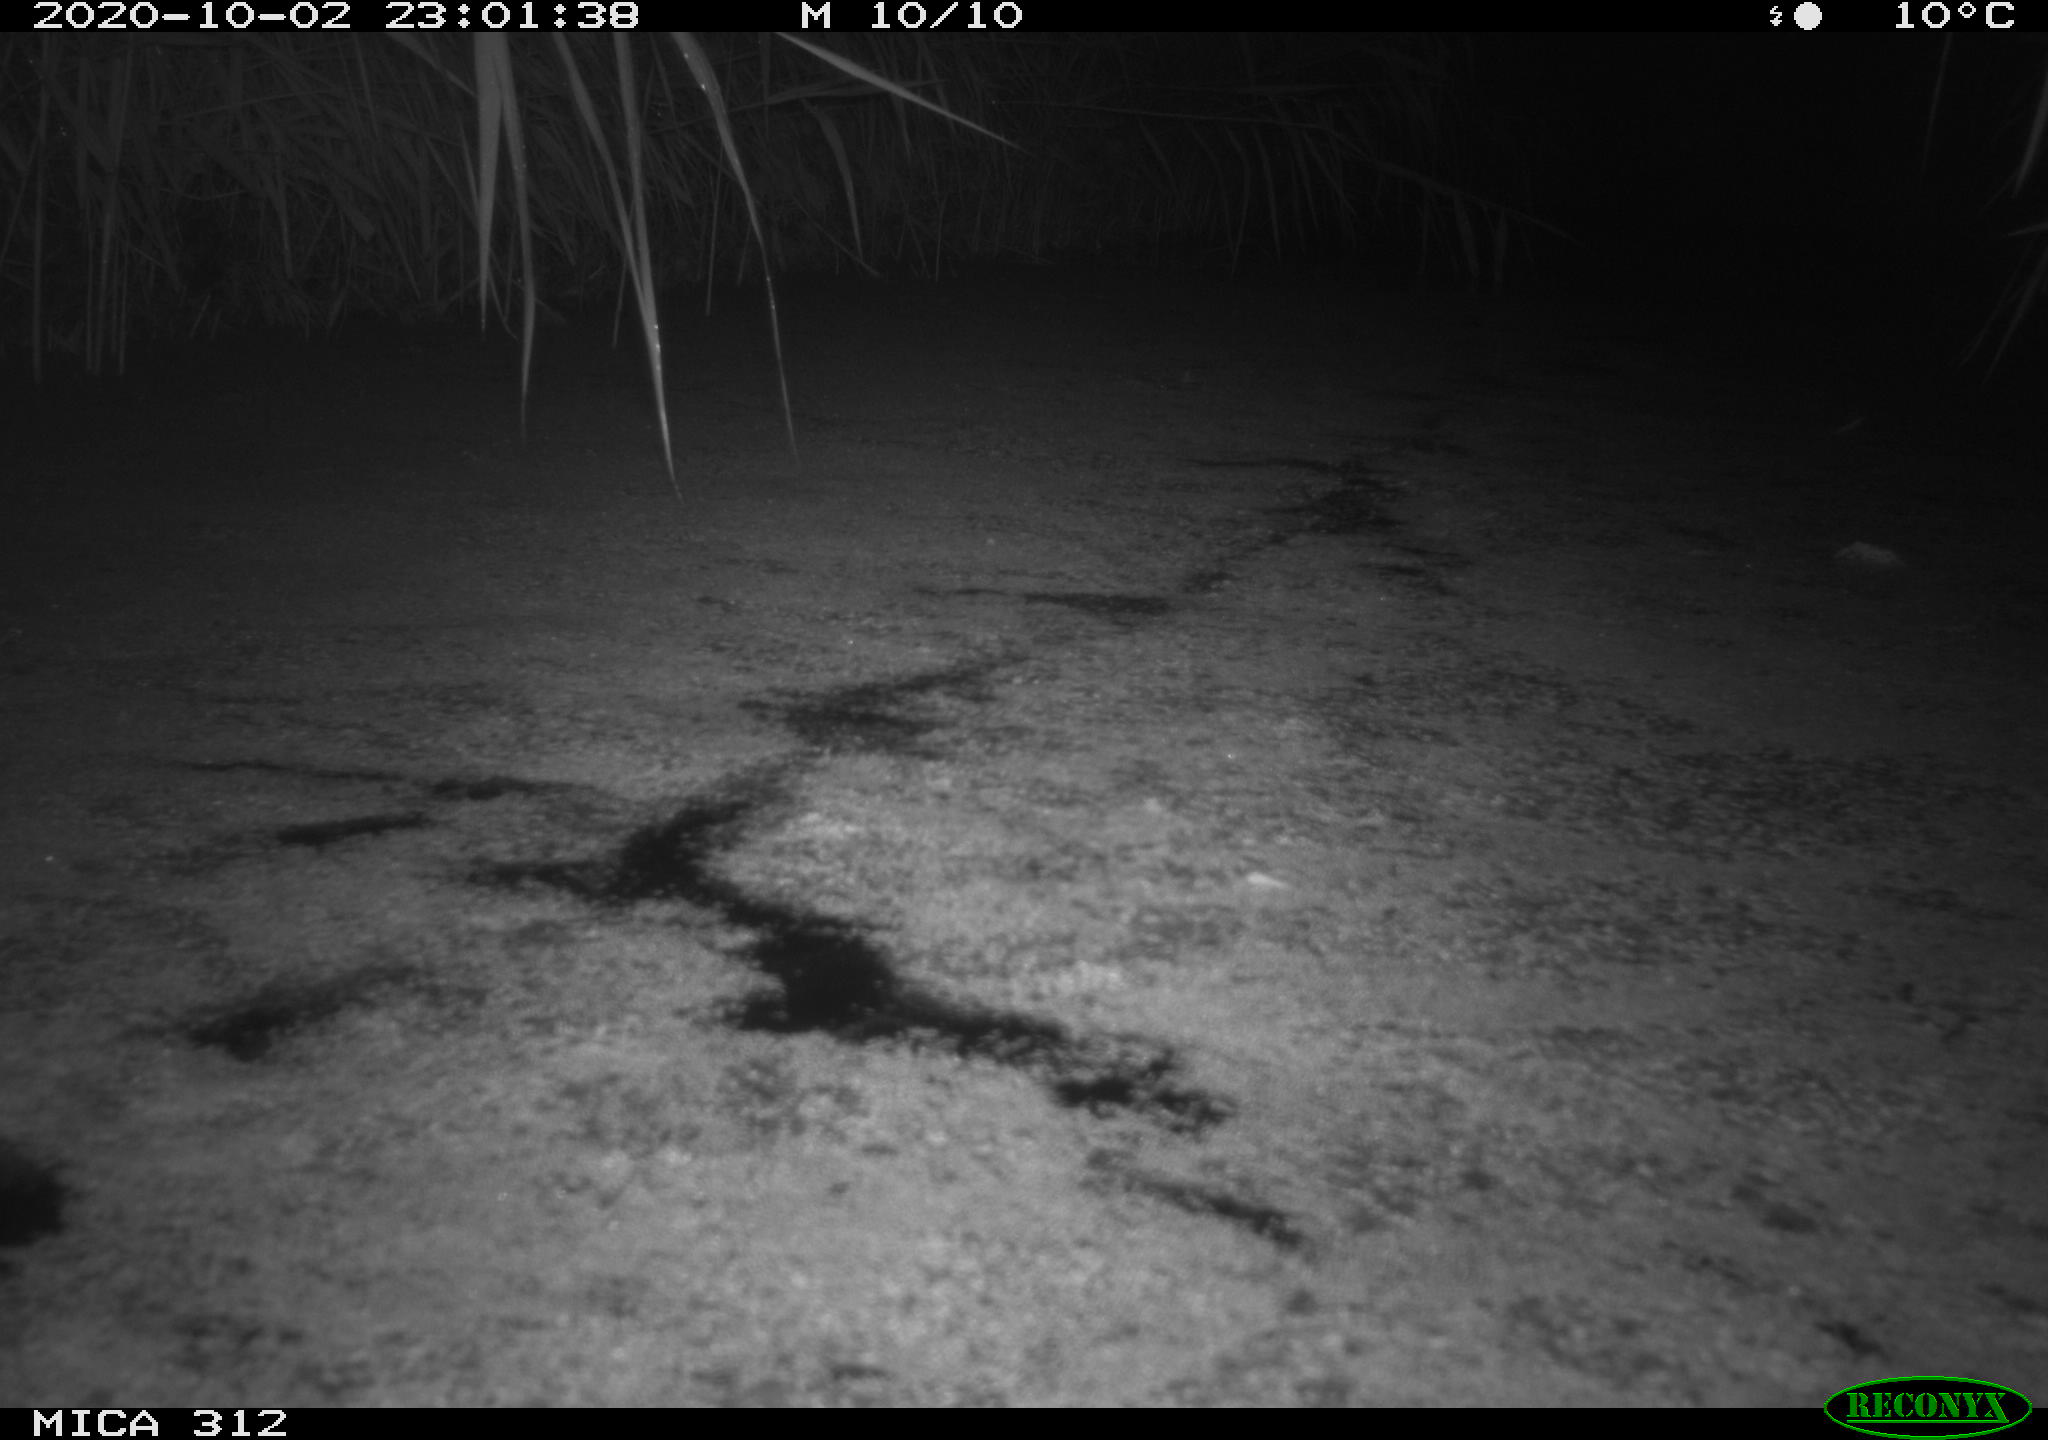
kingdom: Animalia
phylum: Chordata
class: Aves
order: Gruiformes
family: Rallidae
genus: Gallinula
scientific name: Gallinula chloropus
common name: Common moorhen
